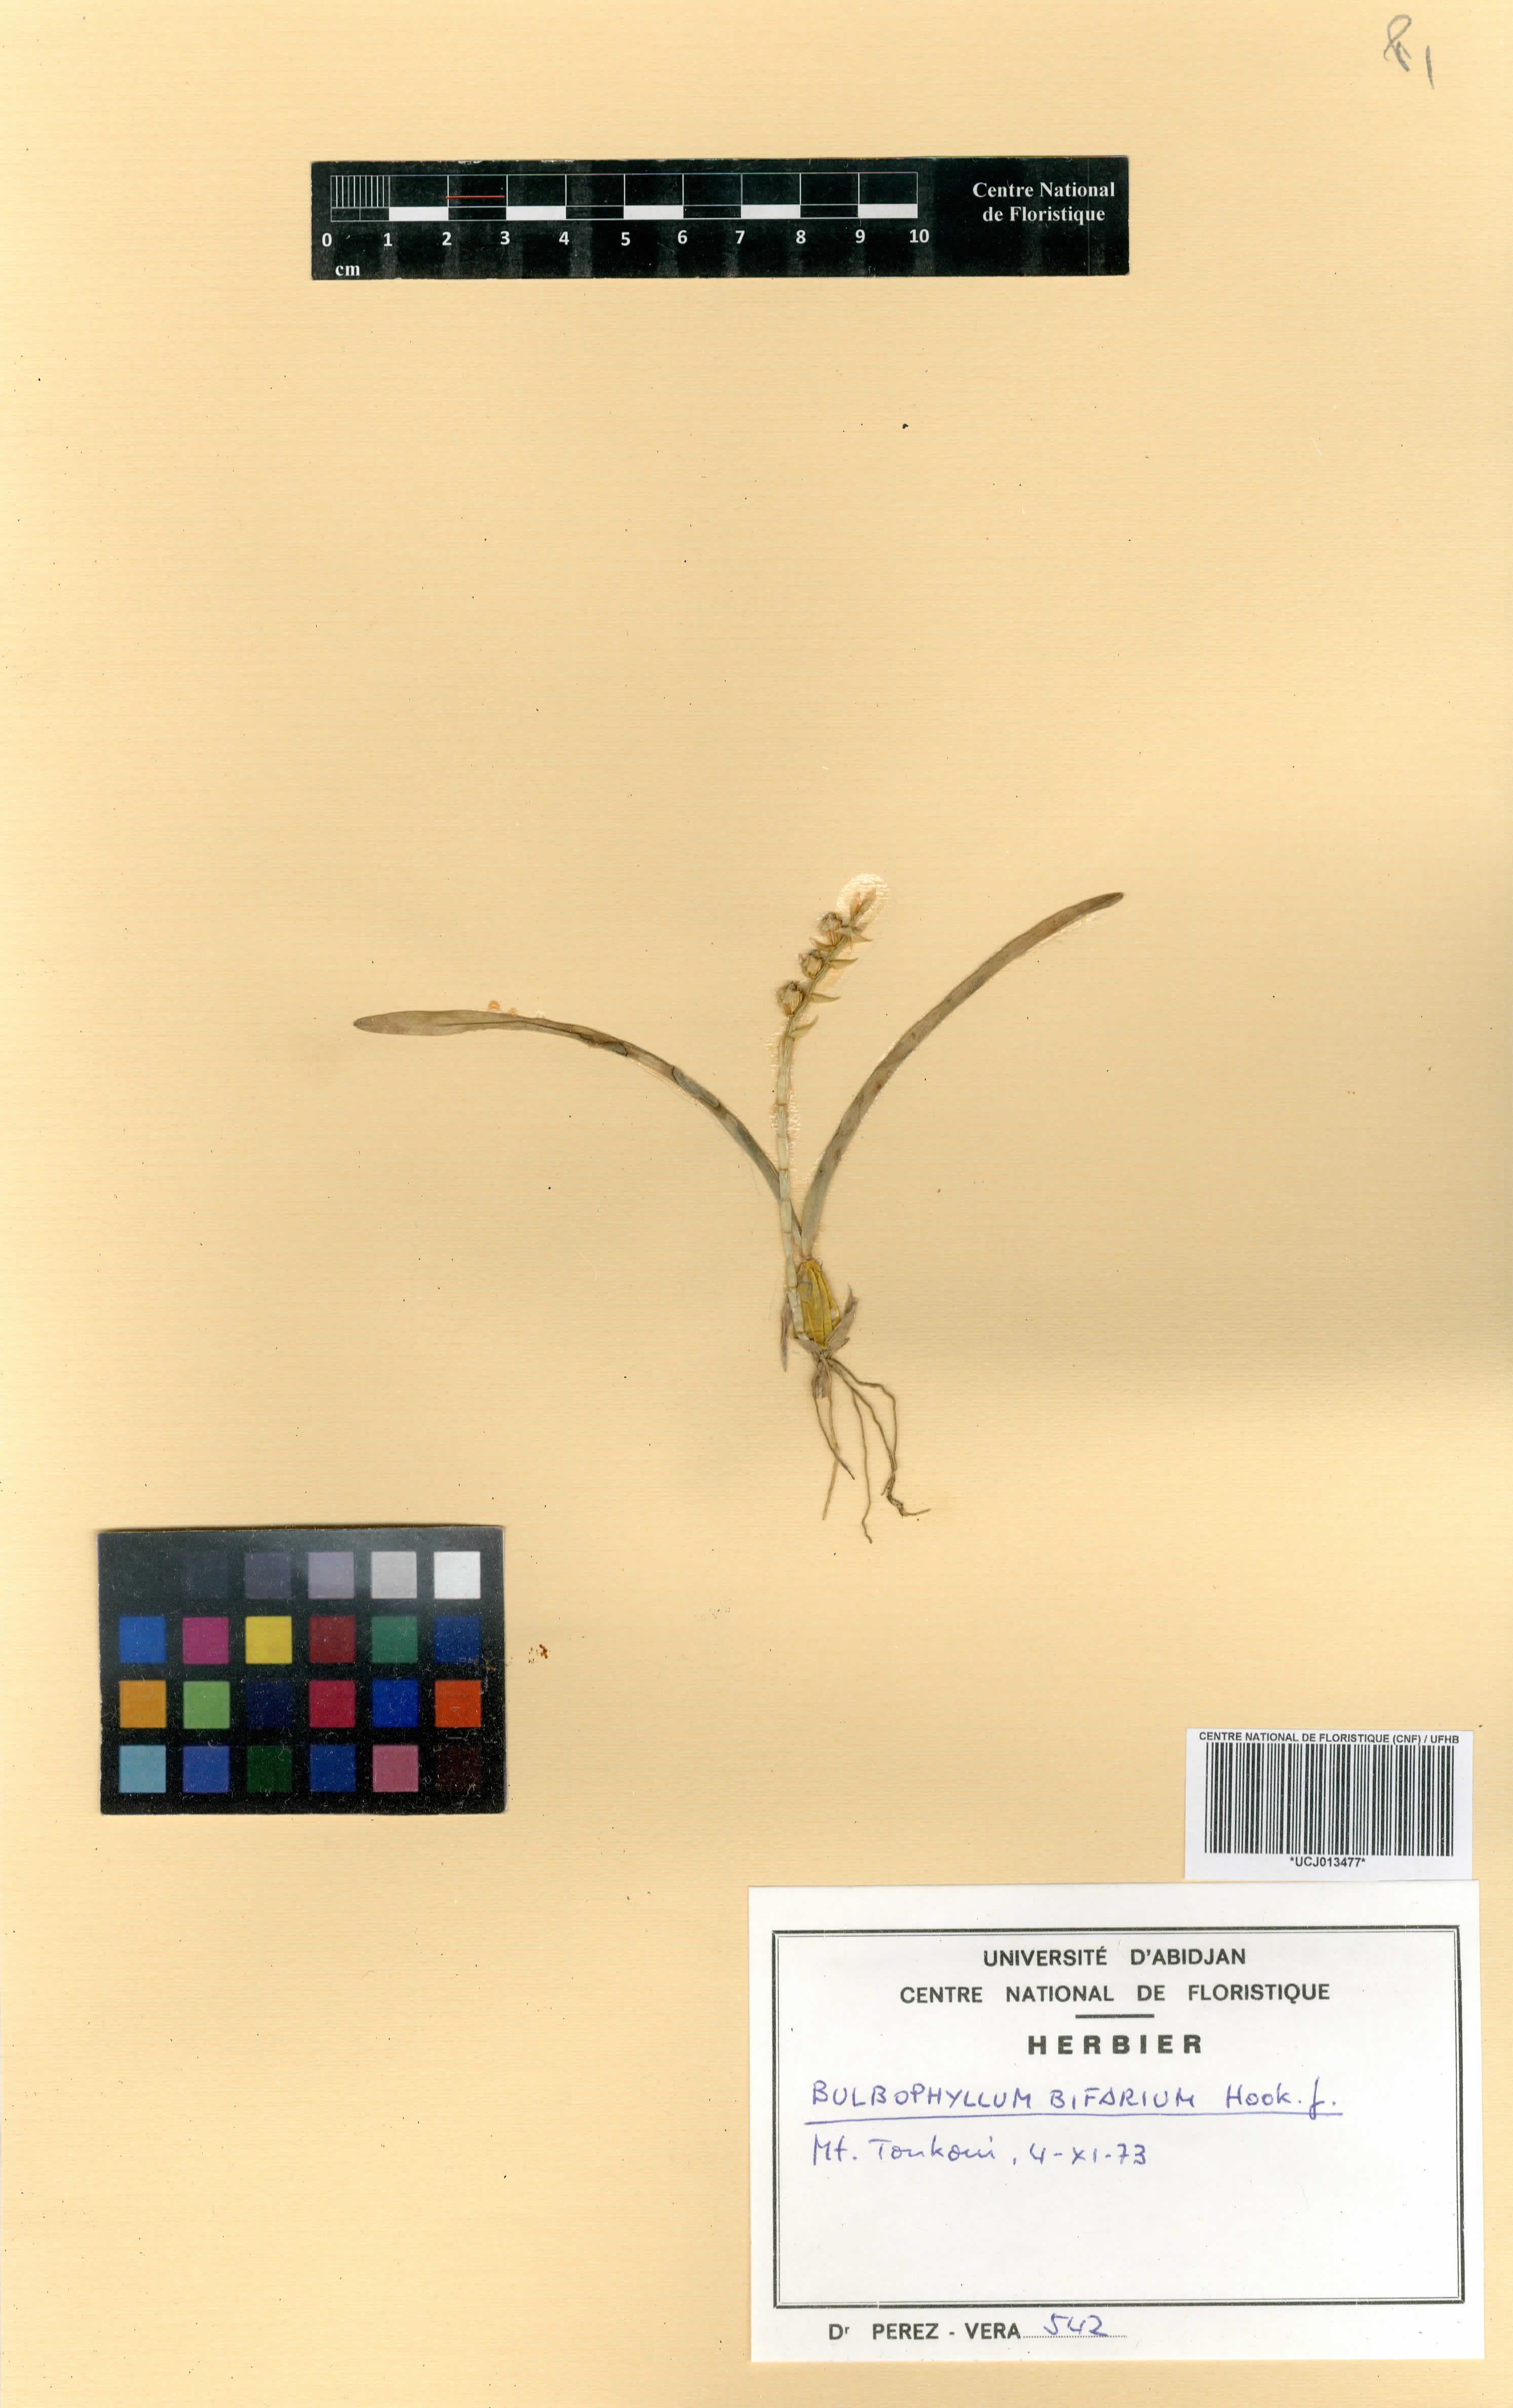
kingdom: Plantae
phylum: Tracheophyta
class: Liliopsida
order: Asparagales
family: Orchidaceae
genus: Bulbophyllum
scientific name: Bulbophyllum bifarium
